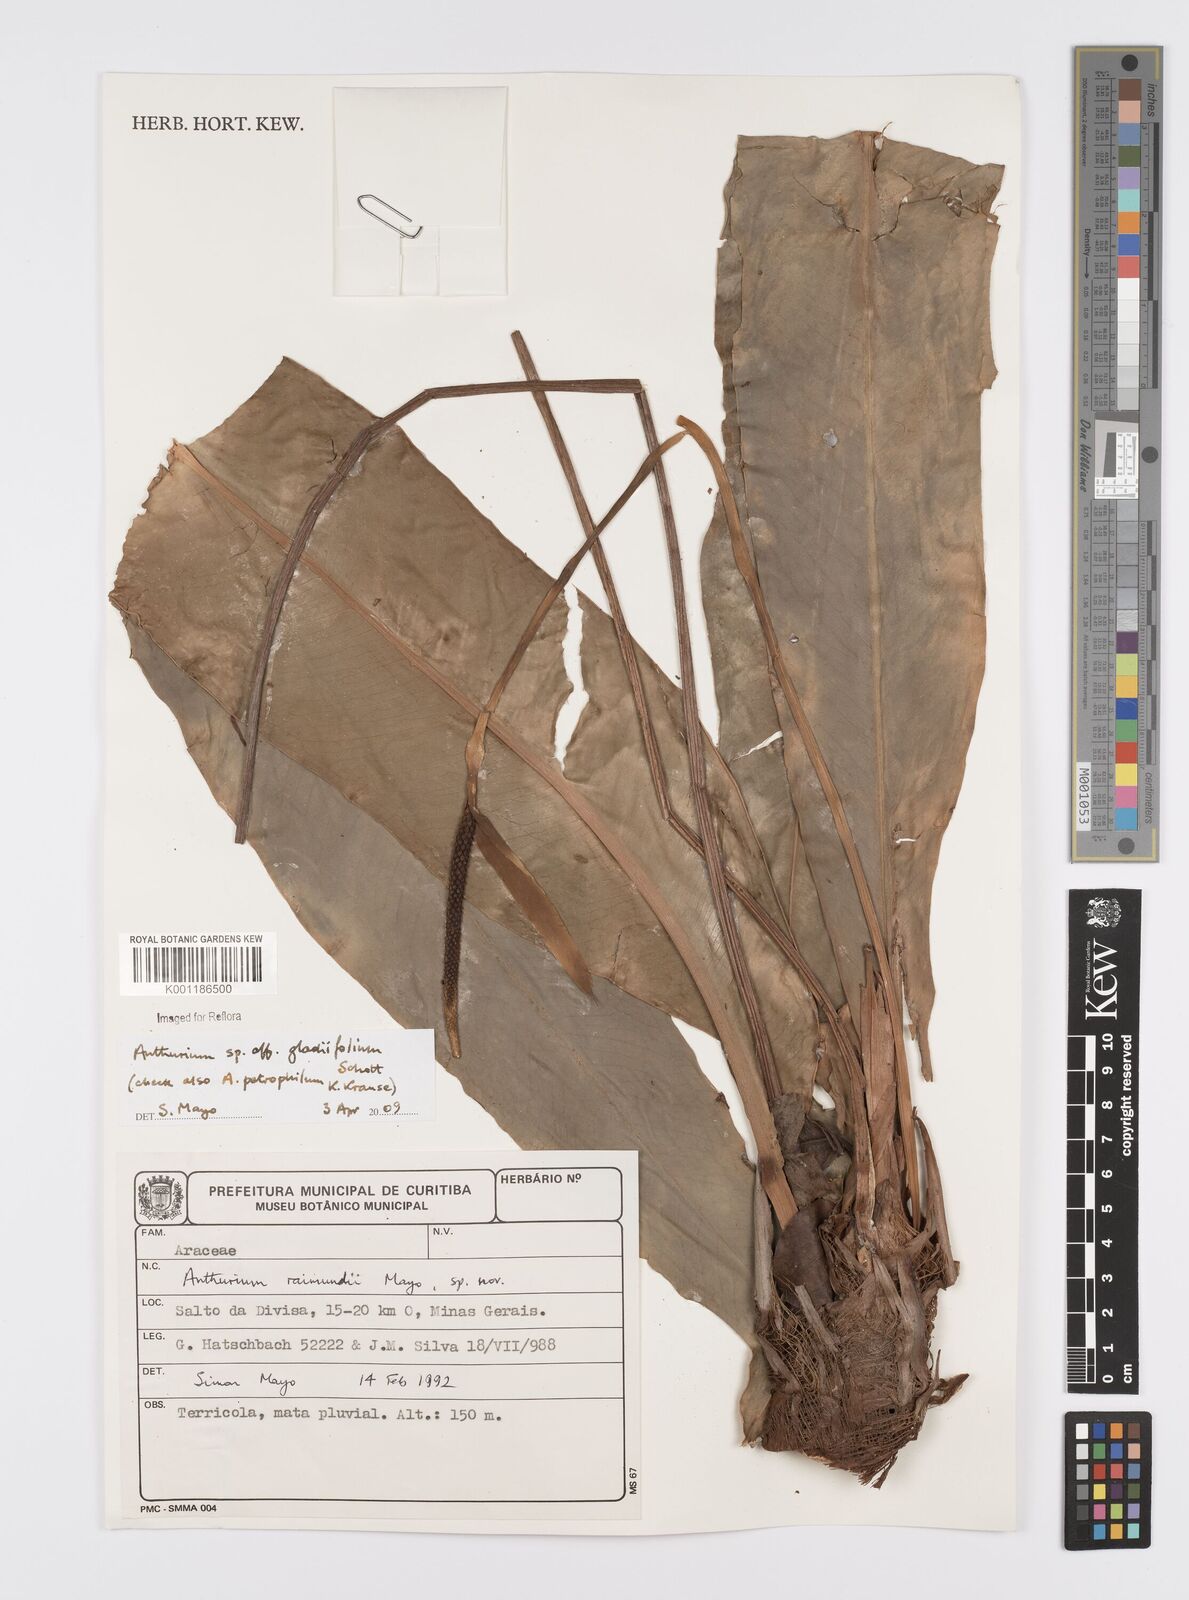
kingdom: Plantae
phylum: Tracheophyta
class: Liliopsida
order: Alismatales
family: Araceae
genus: Anthurium
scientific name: Anthurium gladiifolium
